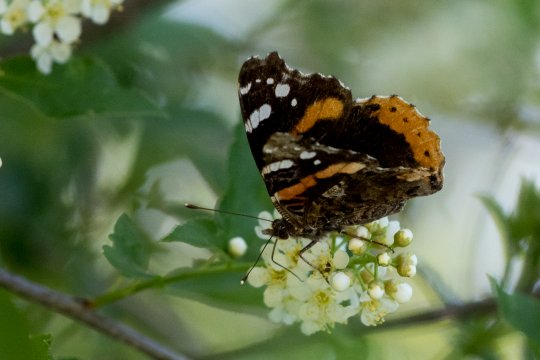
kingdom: Animalia
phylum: Arthropoda
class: Insecta
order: Lepidoptera
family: Nymphalidae
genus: Vanessa
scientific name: Vanessa atalanta
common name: Red Admiral
